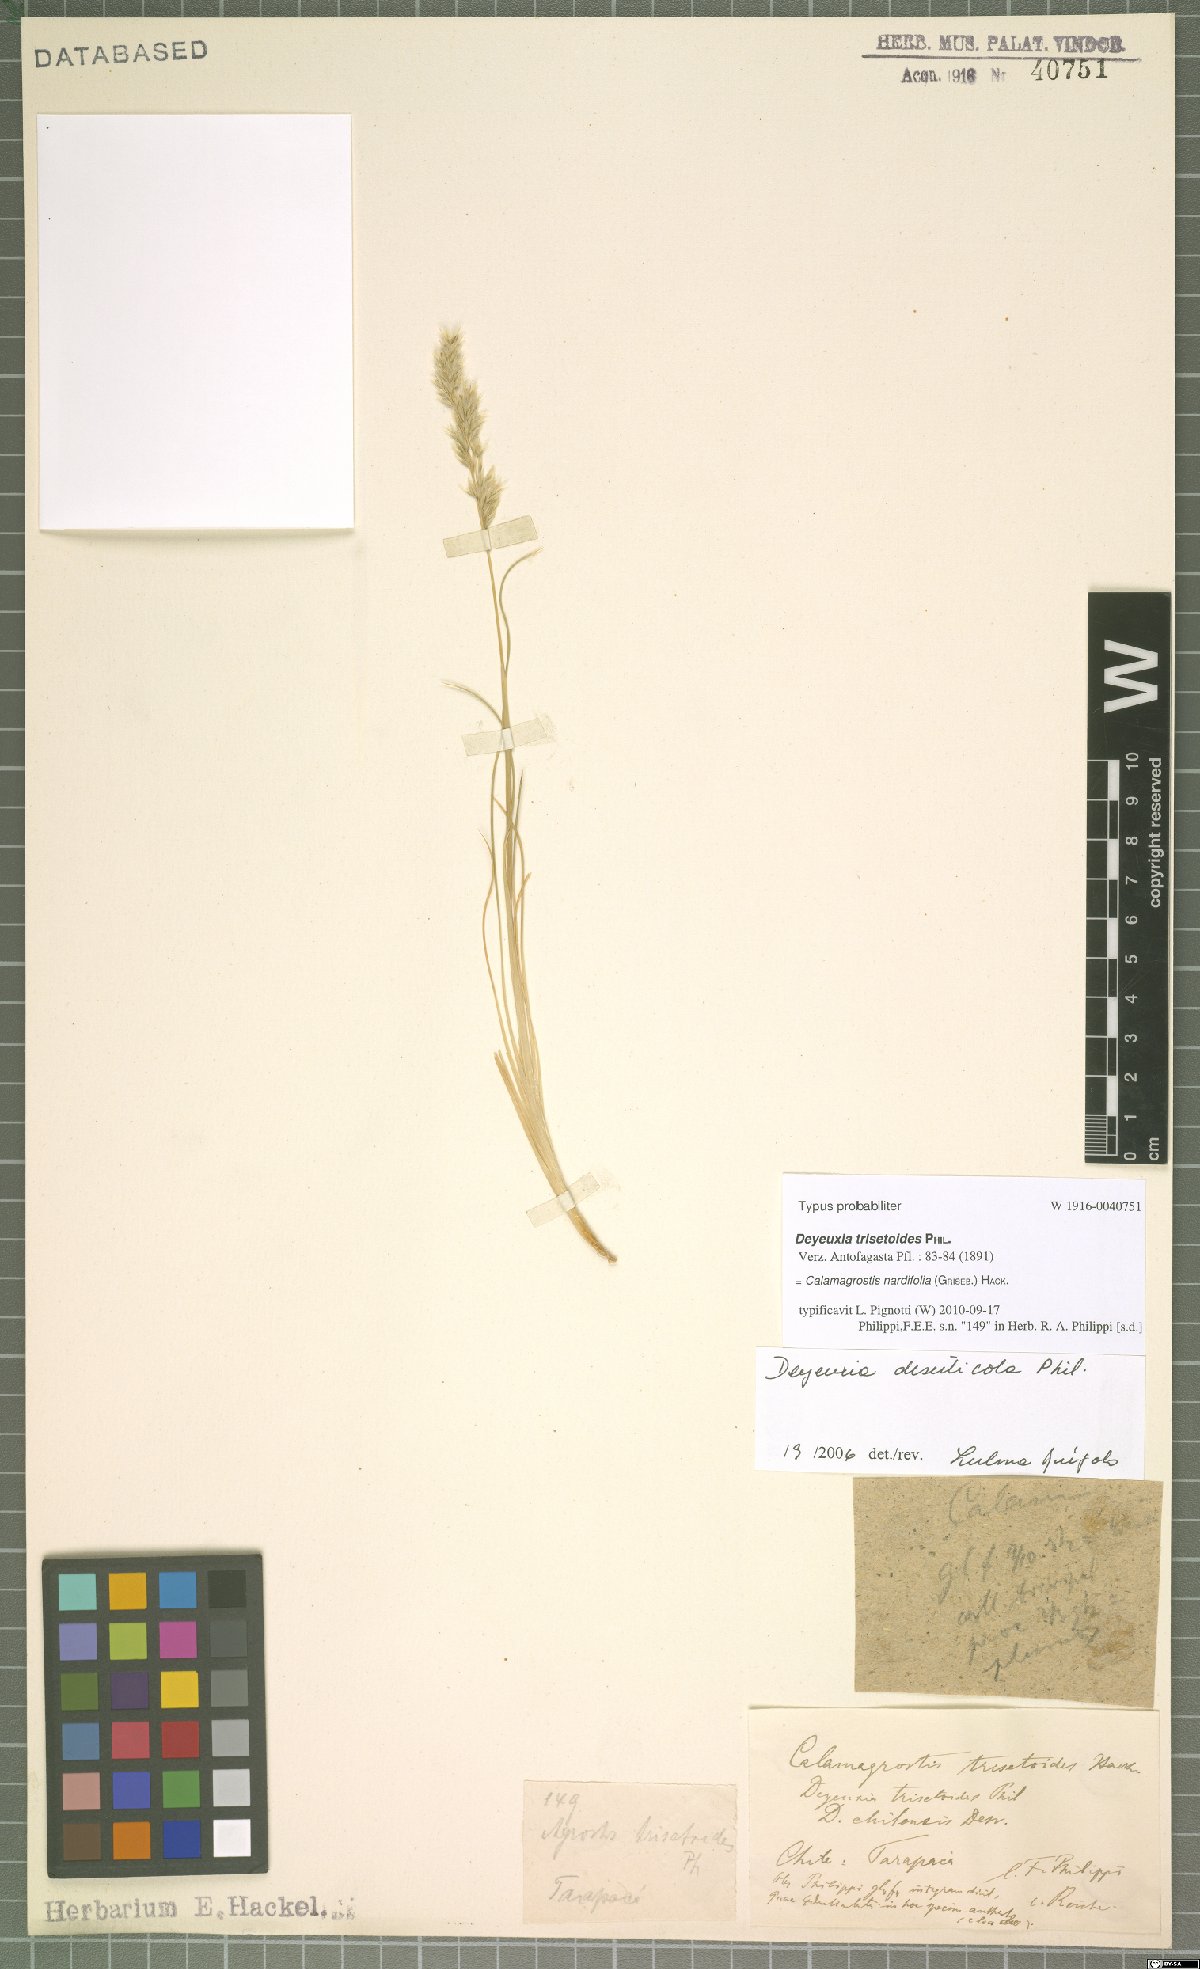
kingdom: Plantae
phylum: Tracheophyta
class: Liliopsida
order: Poales
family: Poaceae
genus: Calamagrostis
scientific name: Calamagrostis nardifolia
